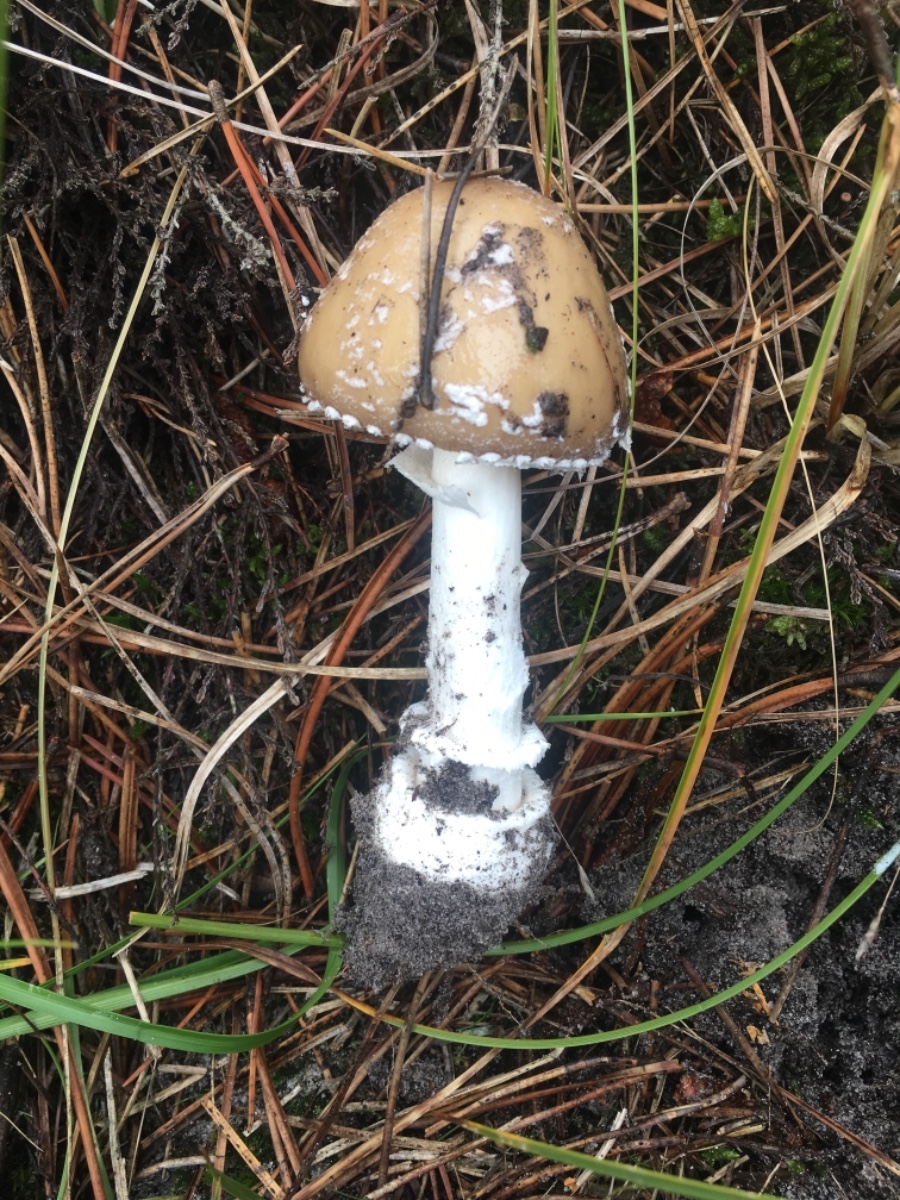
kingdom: Fungi
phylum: Basidiomycota
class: Agaricomycetes
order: Agaricales
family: Amanitaceae
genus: Amanita
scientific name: Amanita pantherina
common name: panter-fluesvamp
